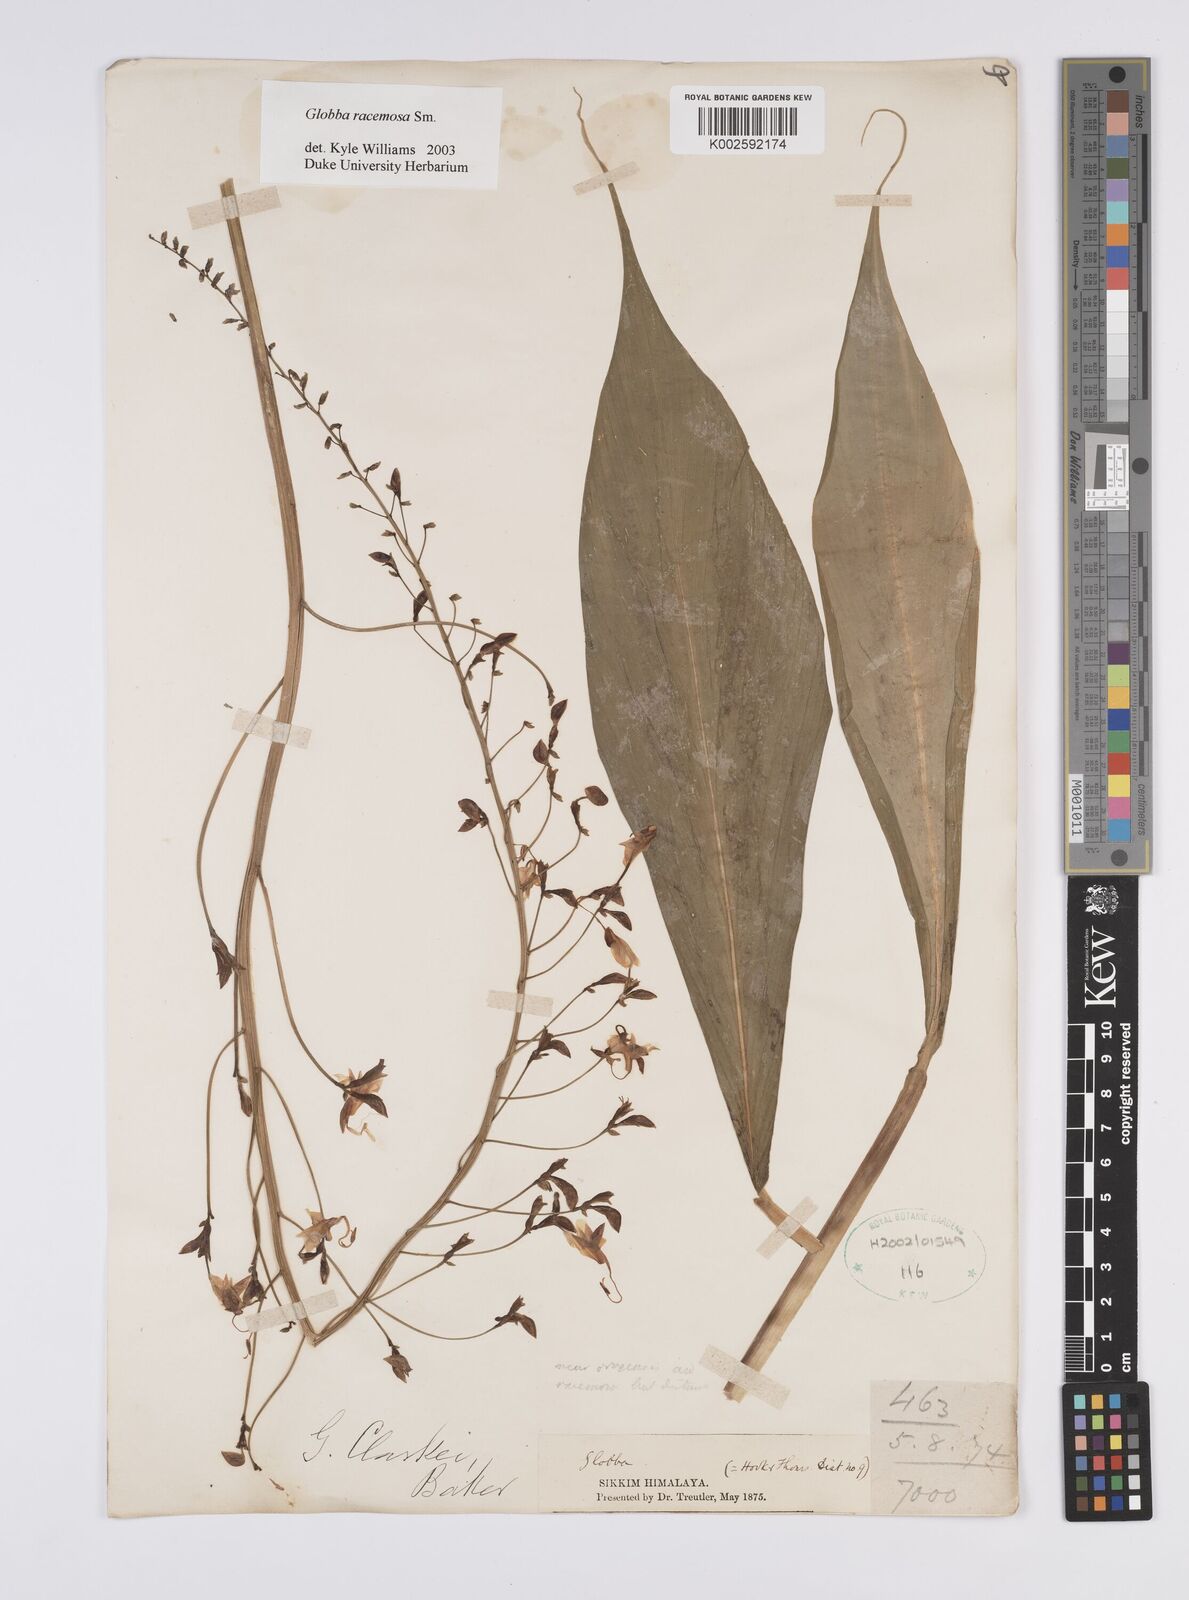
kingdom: Plantae
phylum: Tracheophyta
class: Liliopsida
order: Zingiberales
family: Zingiberaceae
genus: Globba
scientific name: Globba racemosa
